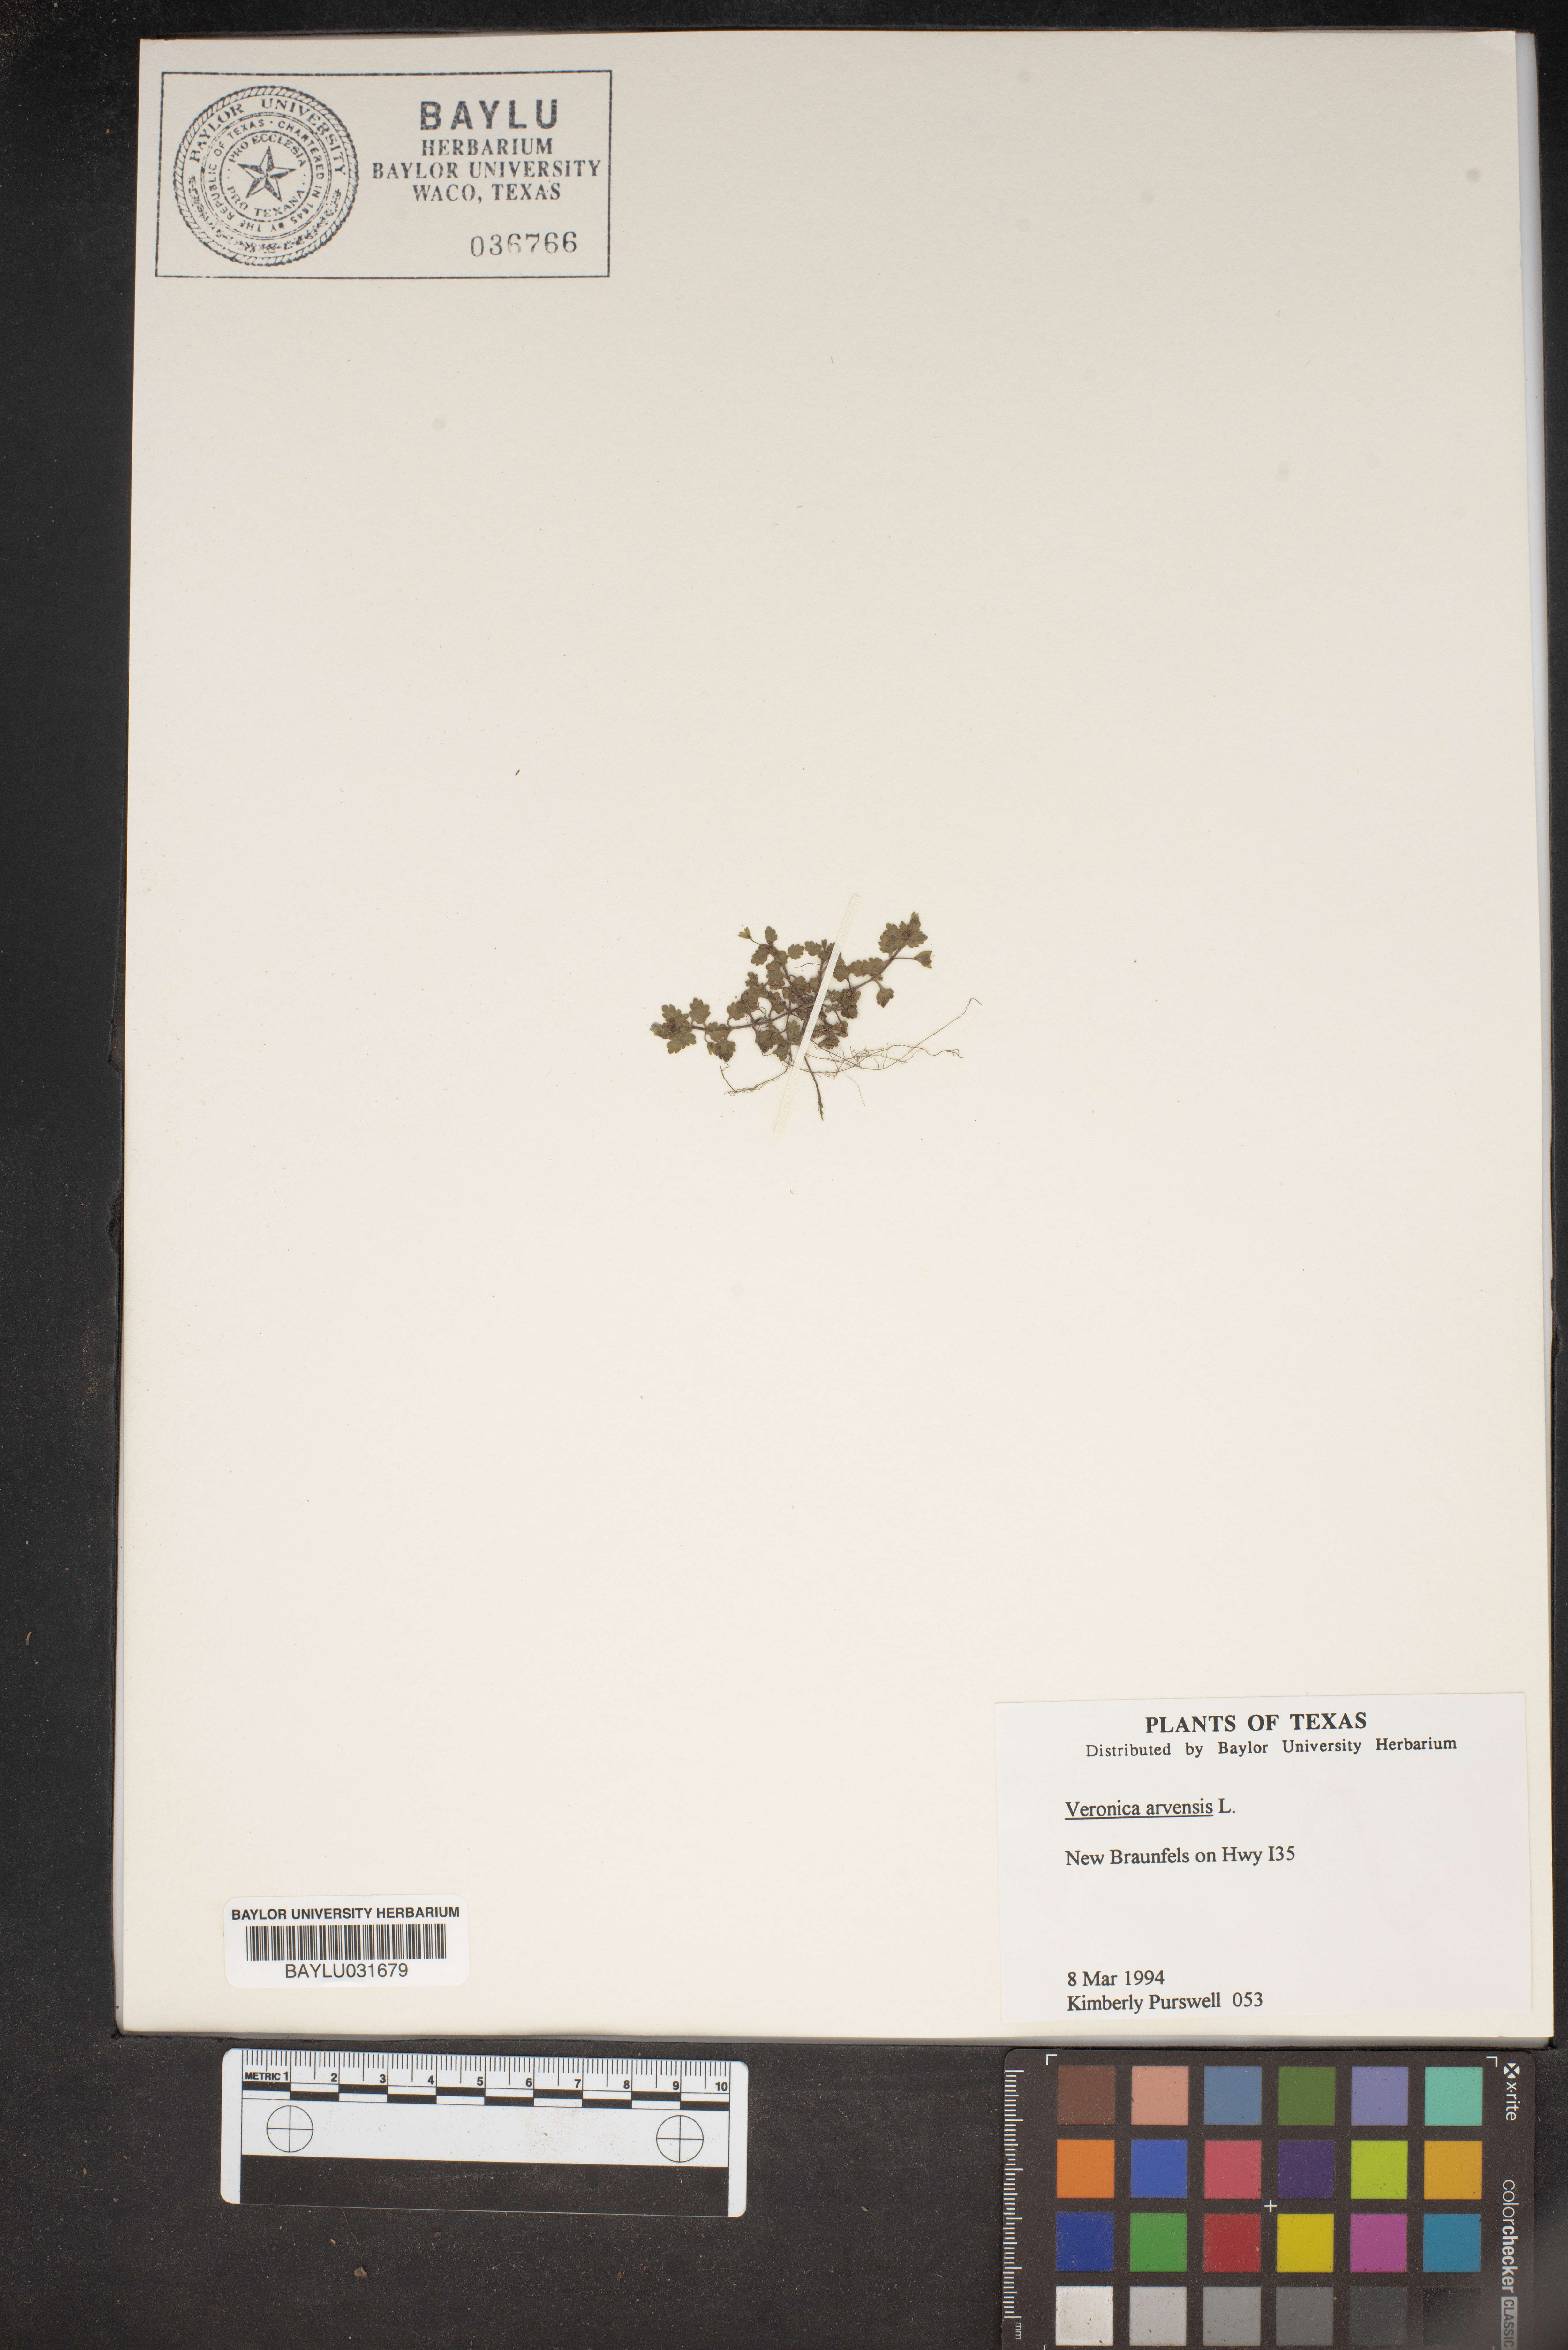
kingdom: Plantae
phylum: Tracheophyta
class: Magnoliopsida
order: Lamiales
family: Plantaginaceae
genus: Veronica
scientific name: Veronica arvensis
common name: Corn speedwell
